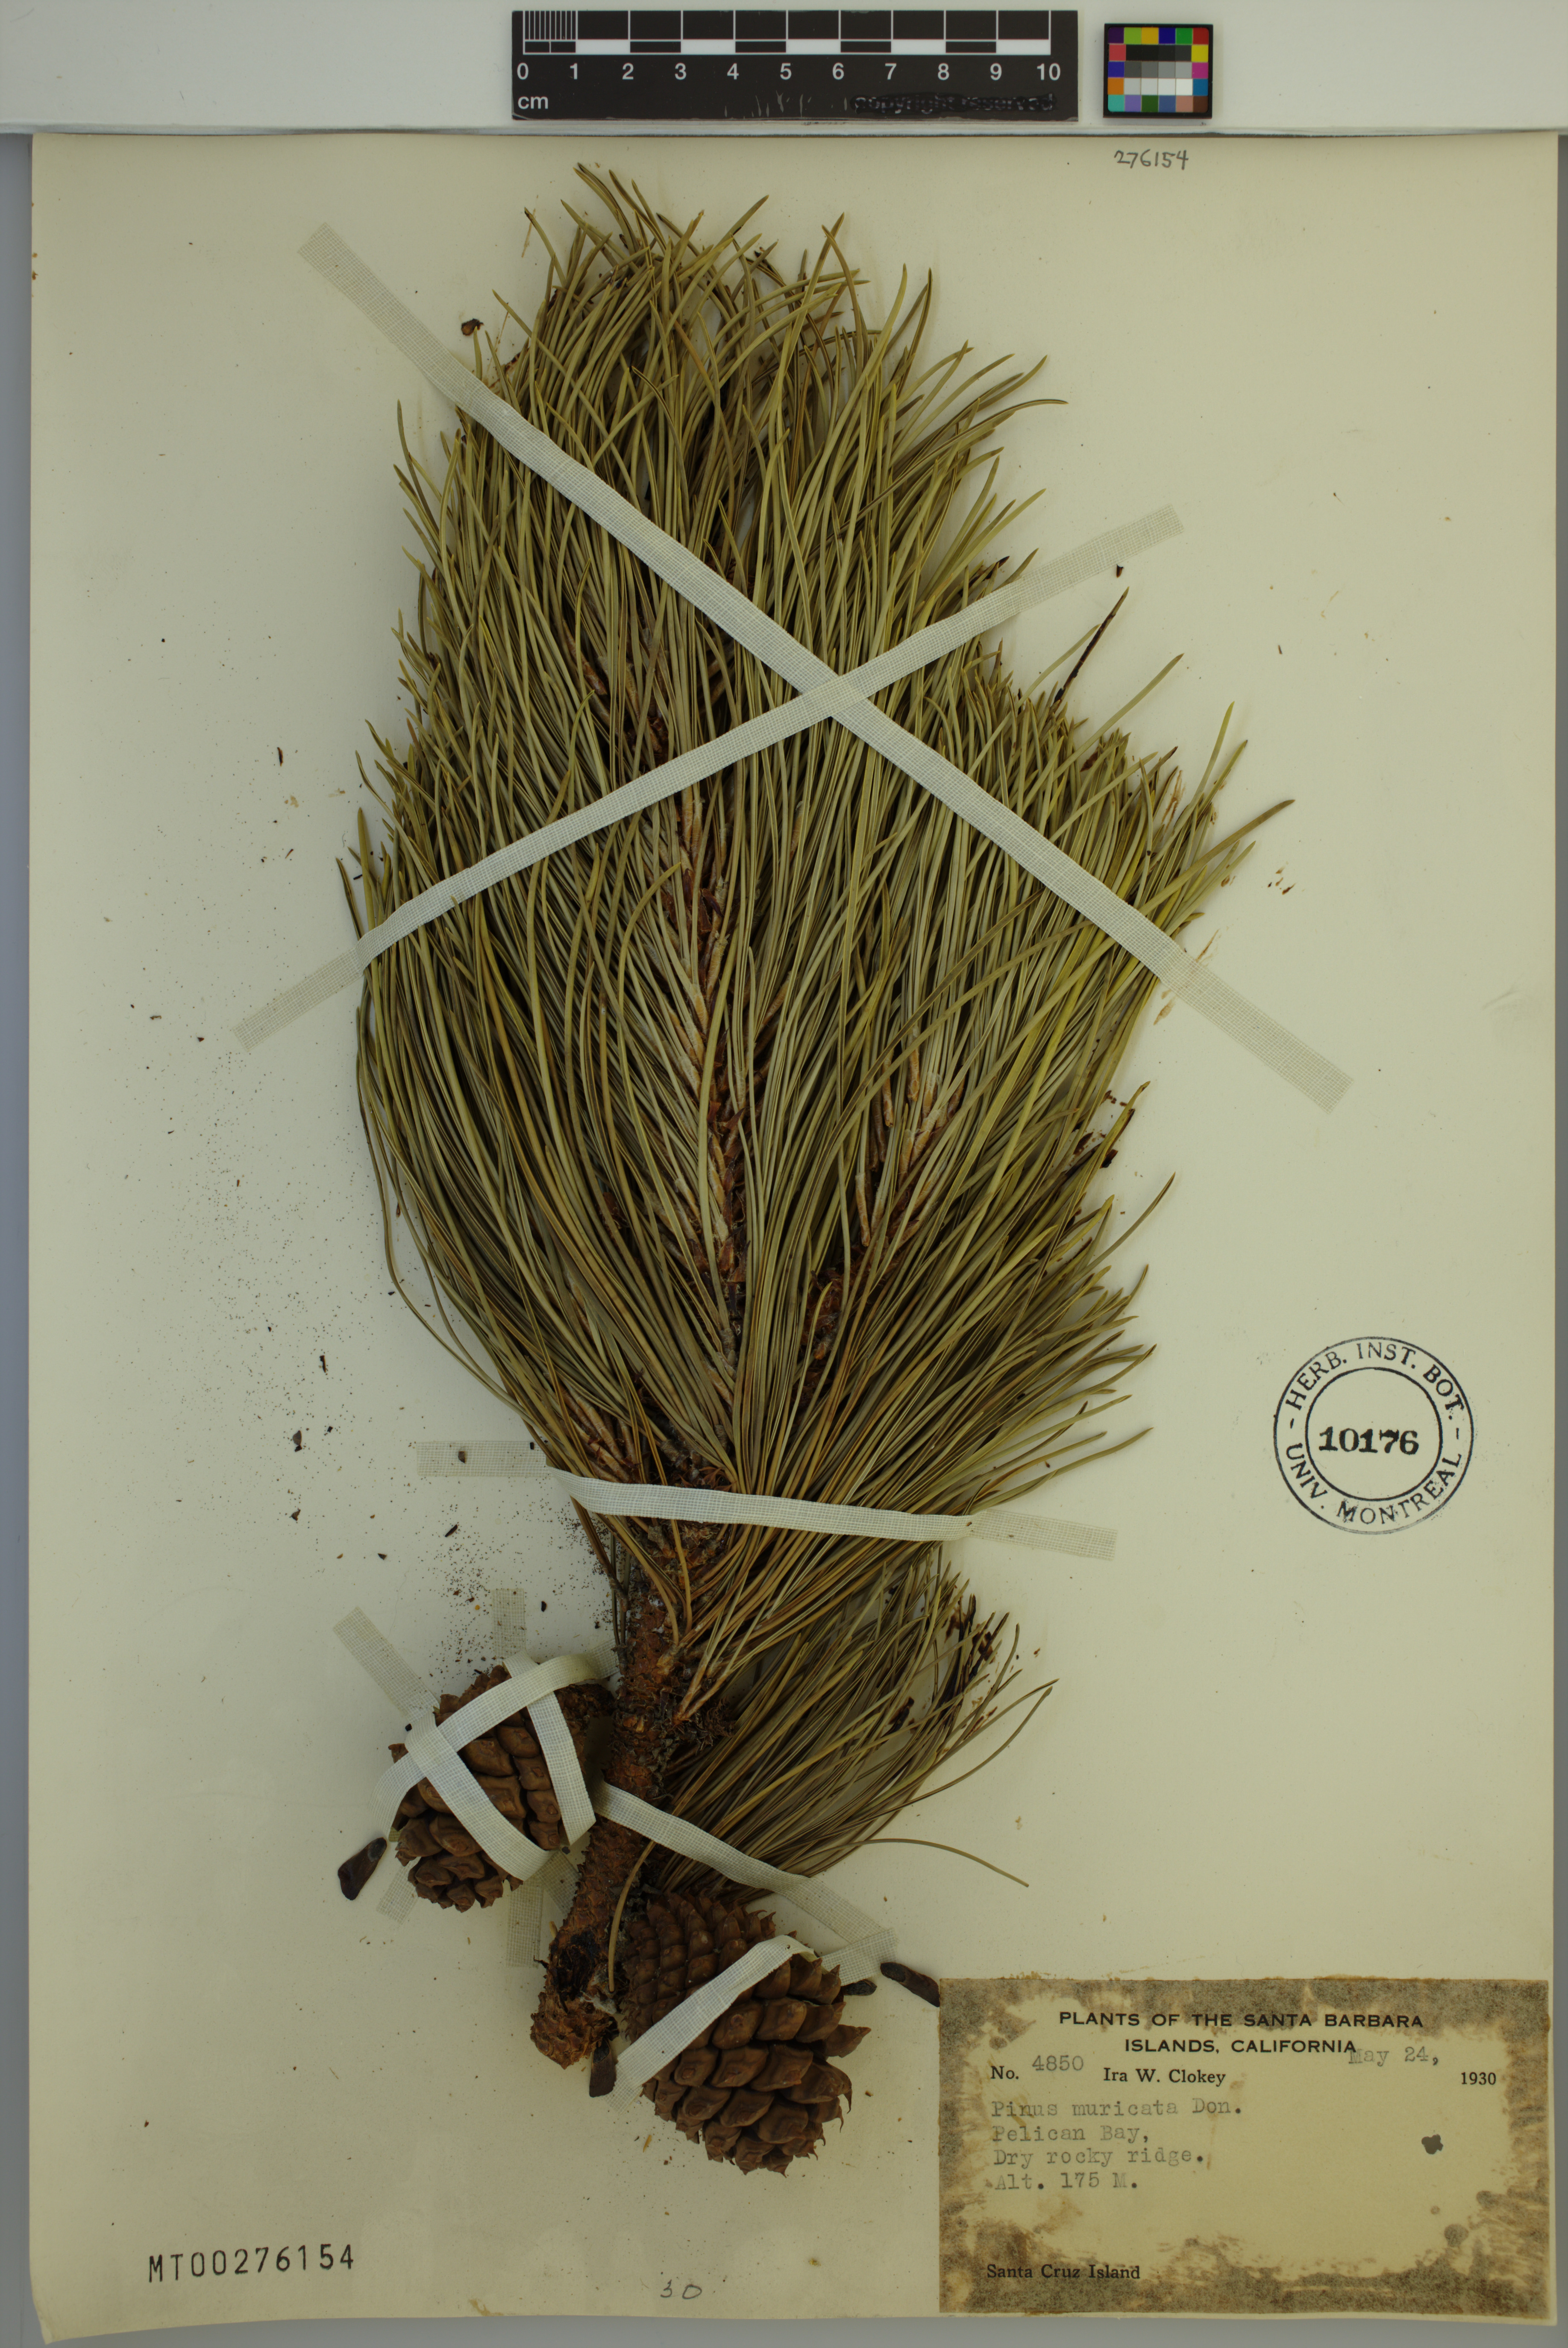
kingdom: Plantae
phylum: Tracheophyta
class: Pinopsida
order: Pinales
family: Pinaceae
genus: Pinus
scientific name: Pinus muricata
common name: Bishop pine
